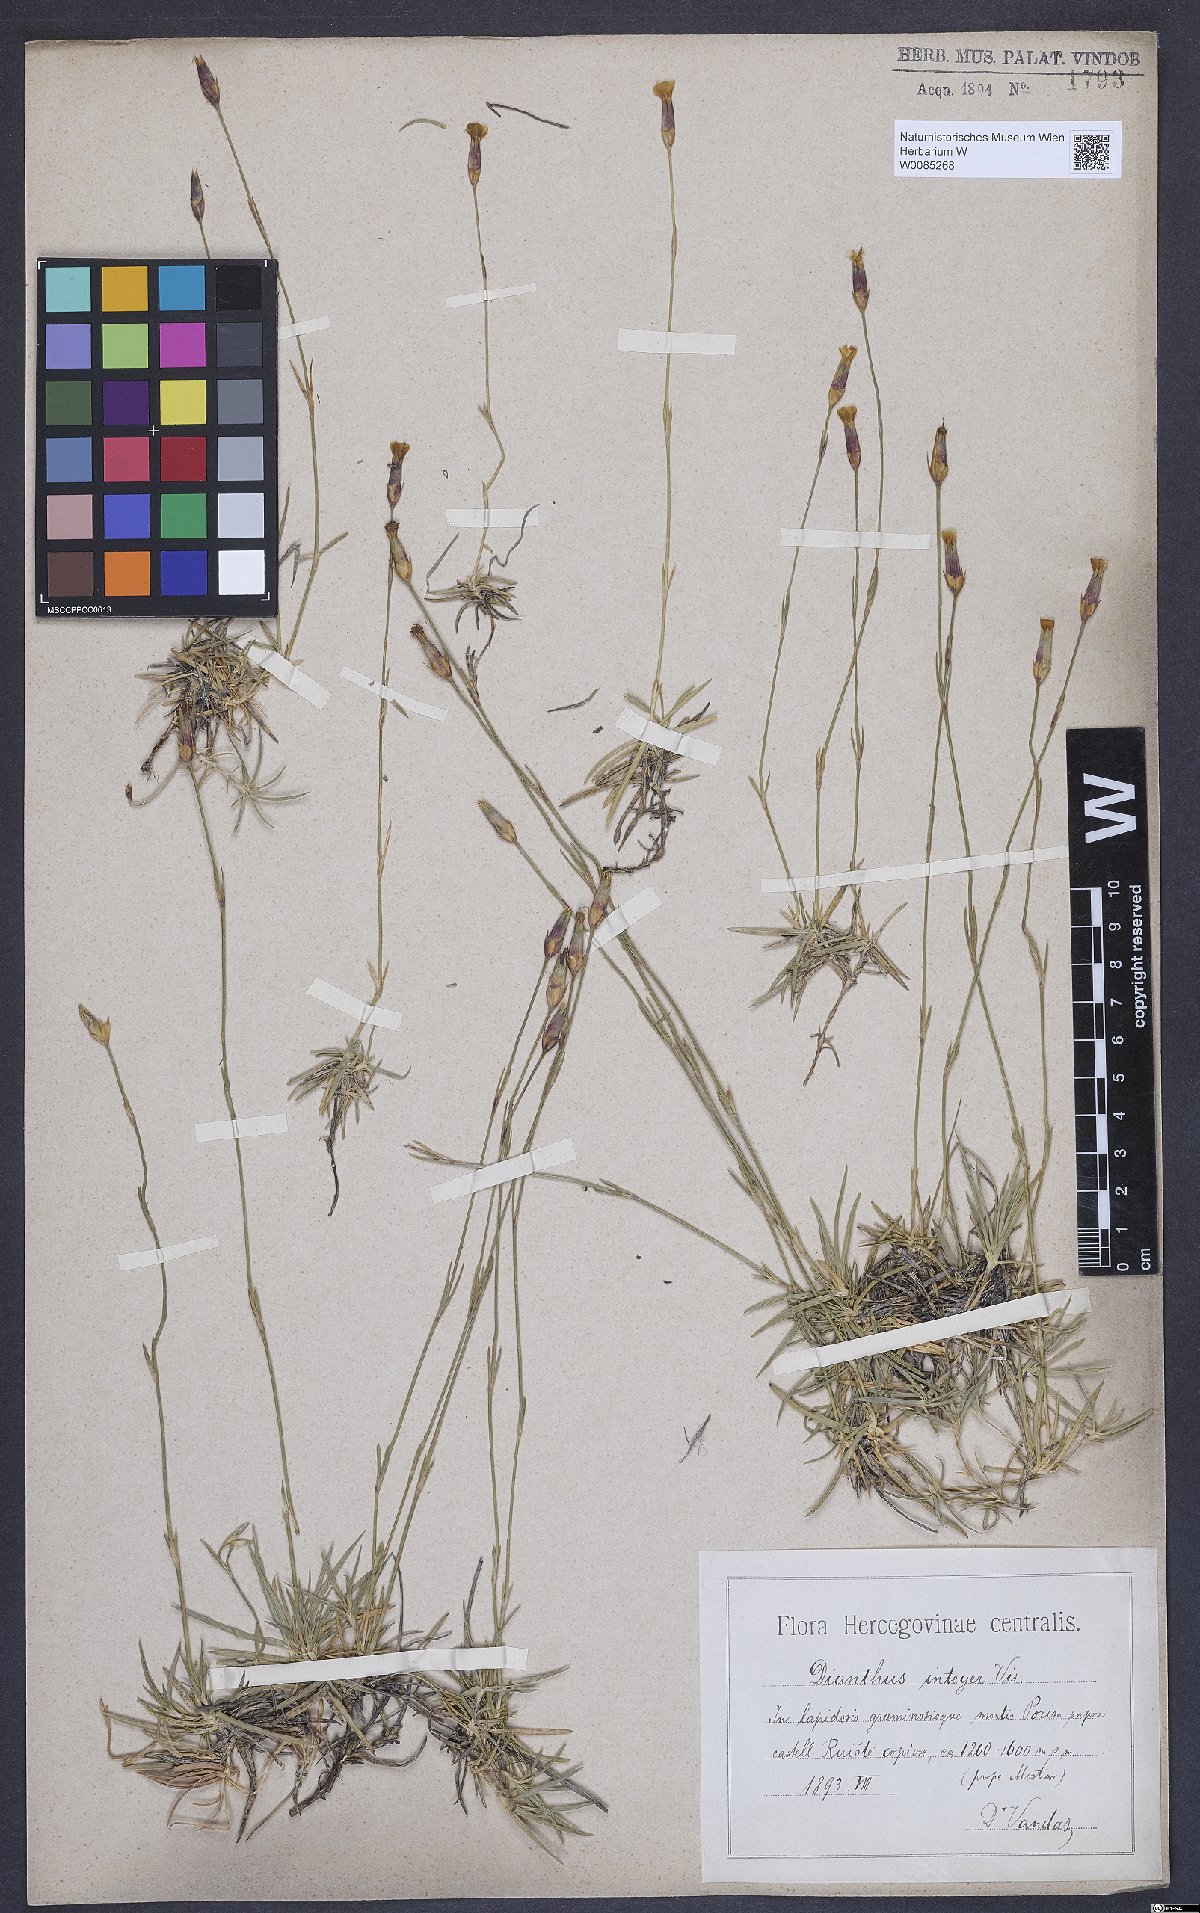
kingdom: Plantae
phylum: Tracheophyta
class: Magnoliopsida
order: Caryophyllales
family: Caryophyllaceae
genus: Dianthus
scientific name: Dianthus petraeus
